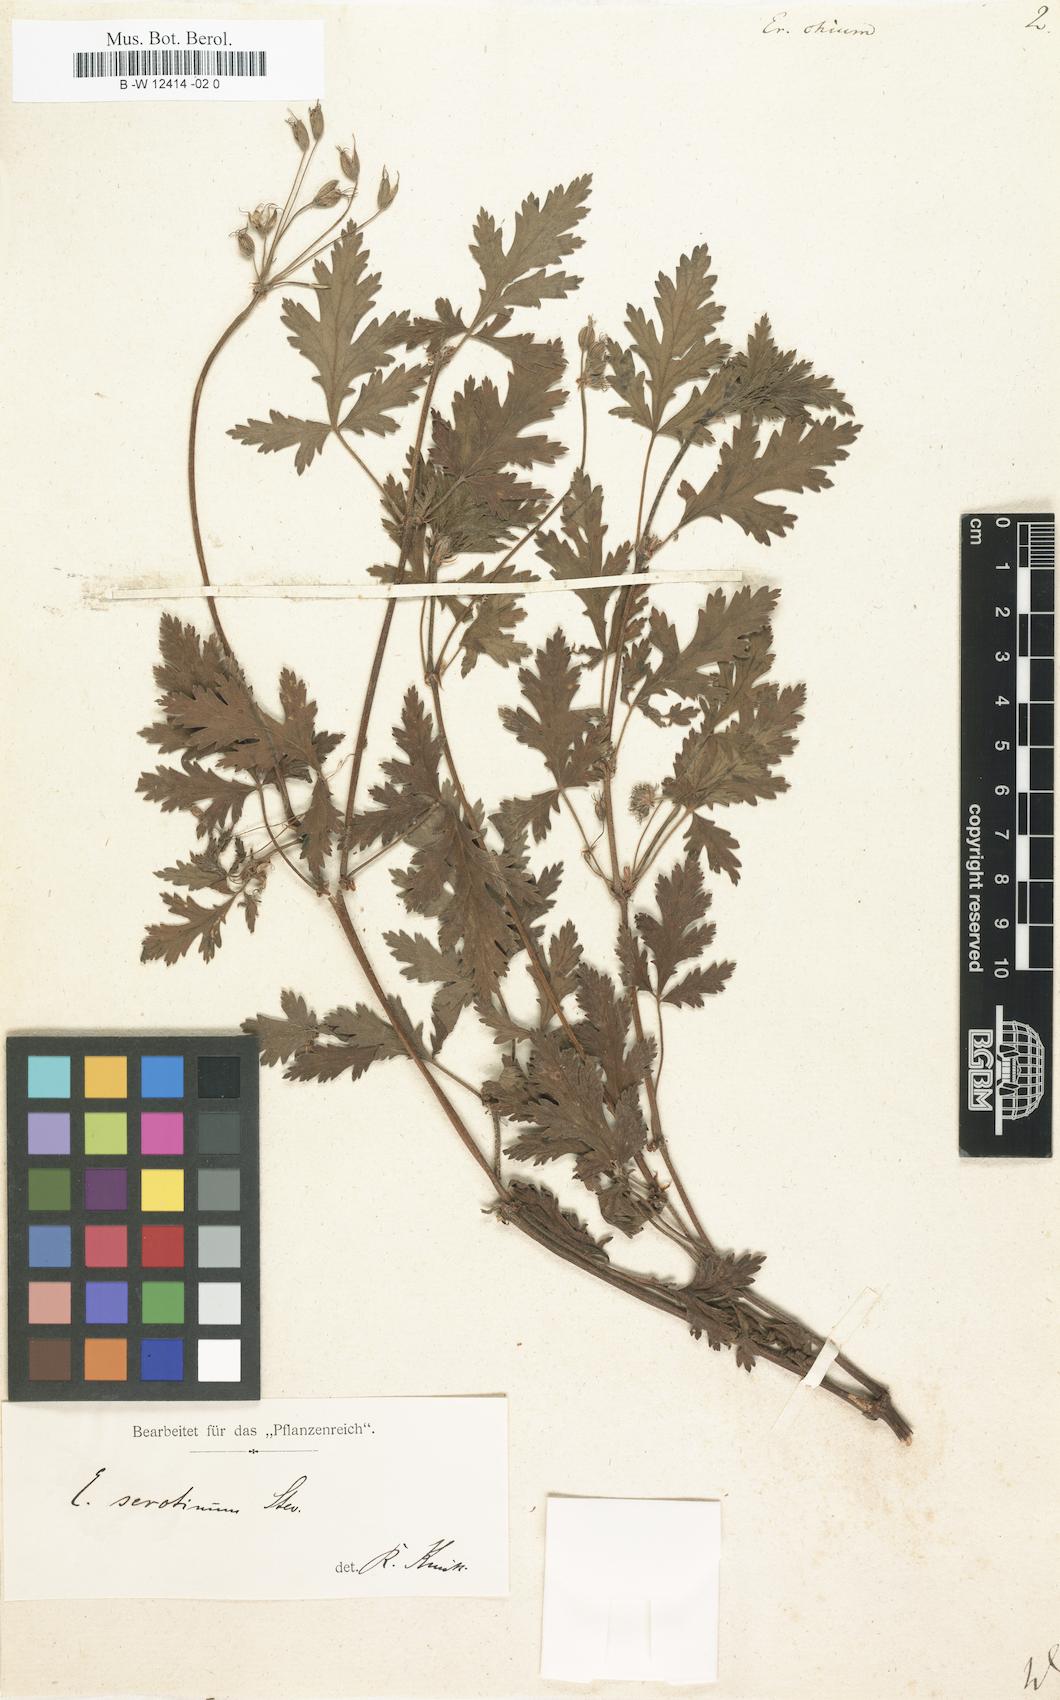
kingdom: Plantae
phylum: Tracheophyta
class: Magnoliopsida
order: Geraniales
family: Geraniaceae
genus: Erodium
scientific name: Erodium chium
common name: Three-lobed stork's-bill
